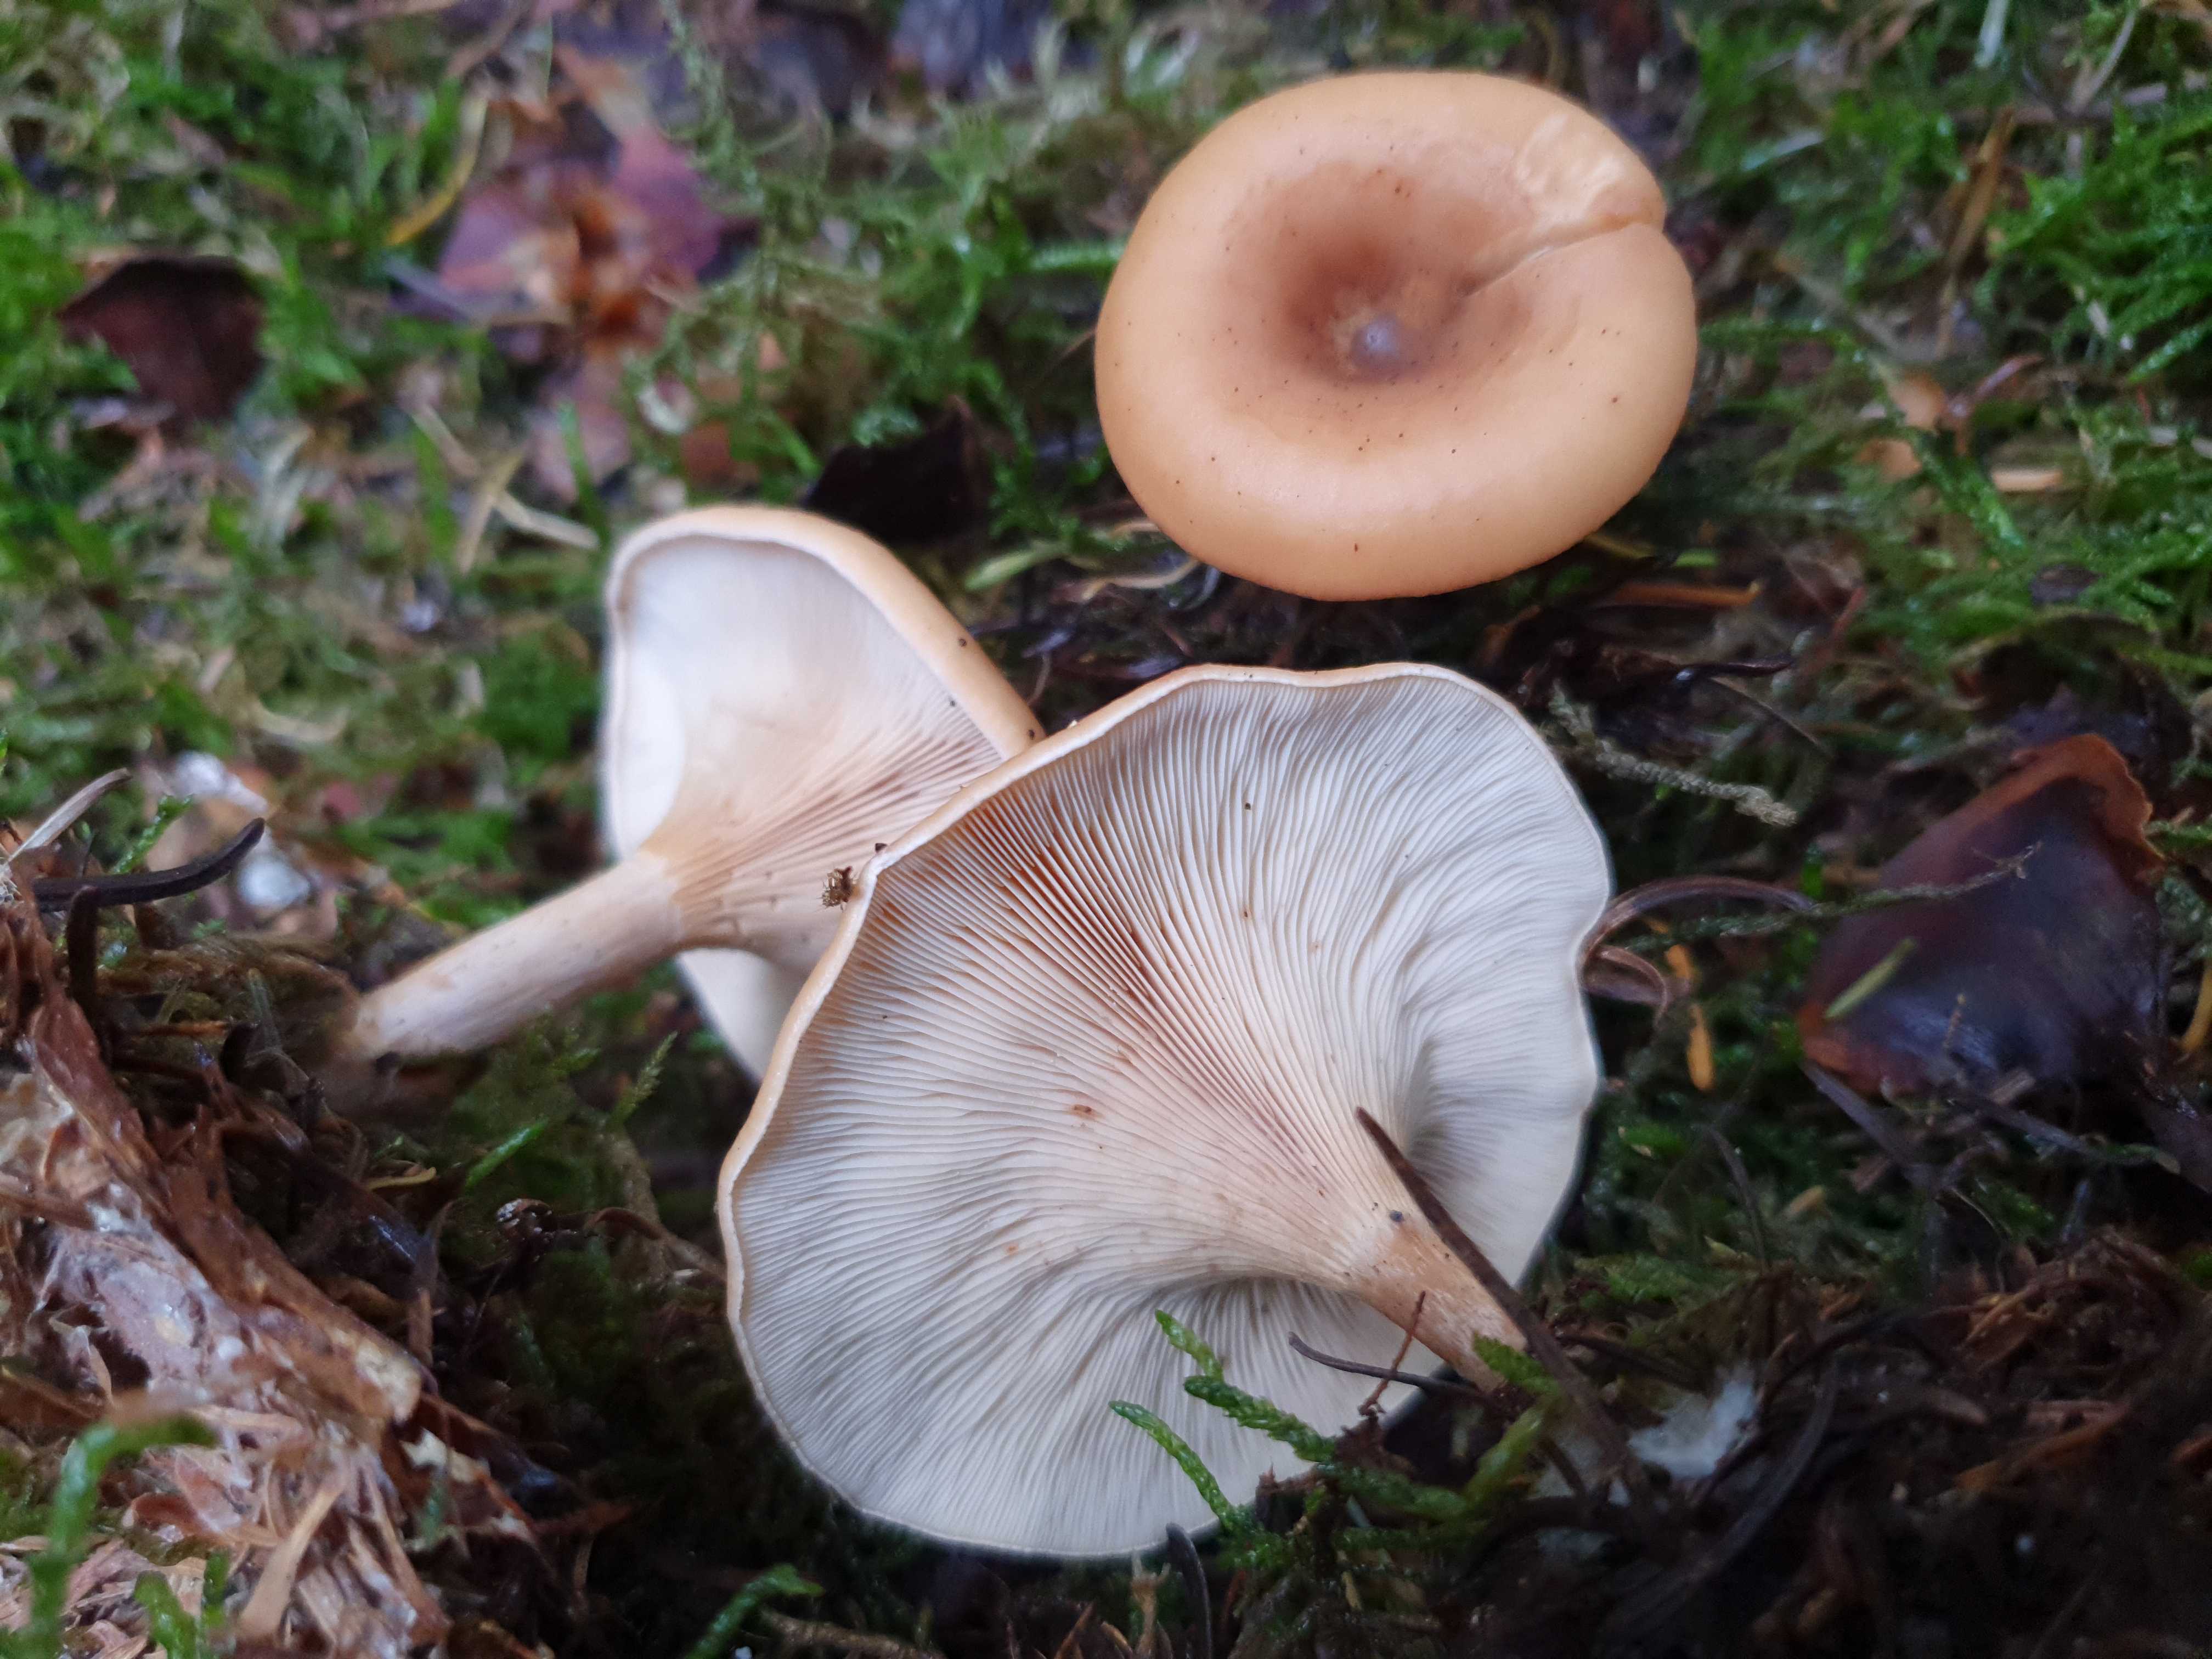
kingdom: Fungi
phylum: Basidiomycota
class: Agaricomycetes
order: Agaricales
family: Tricholomataceae
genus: Paralepista
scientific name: Paralepista flaccida
